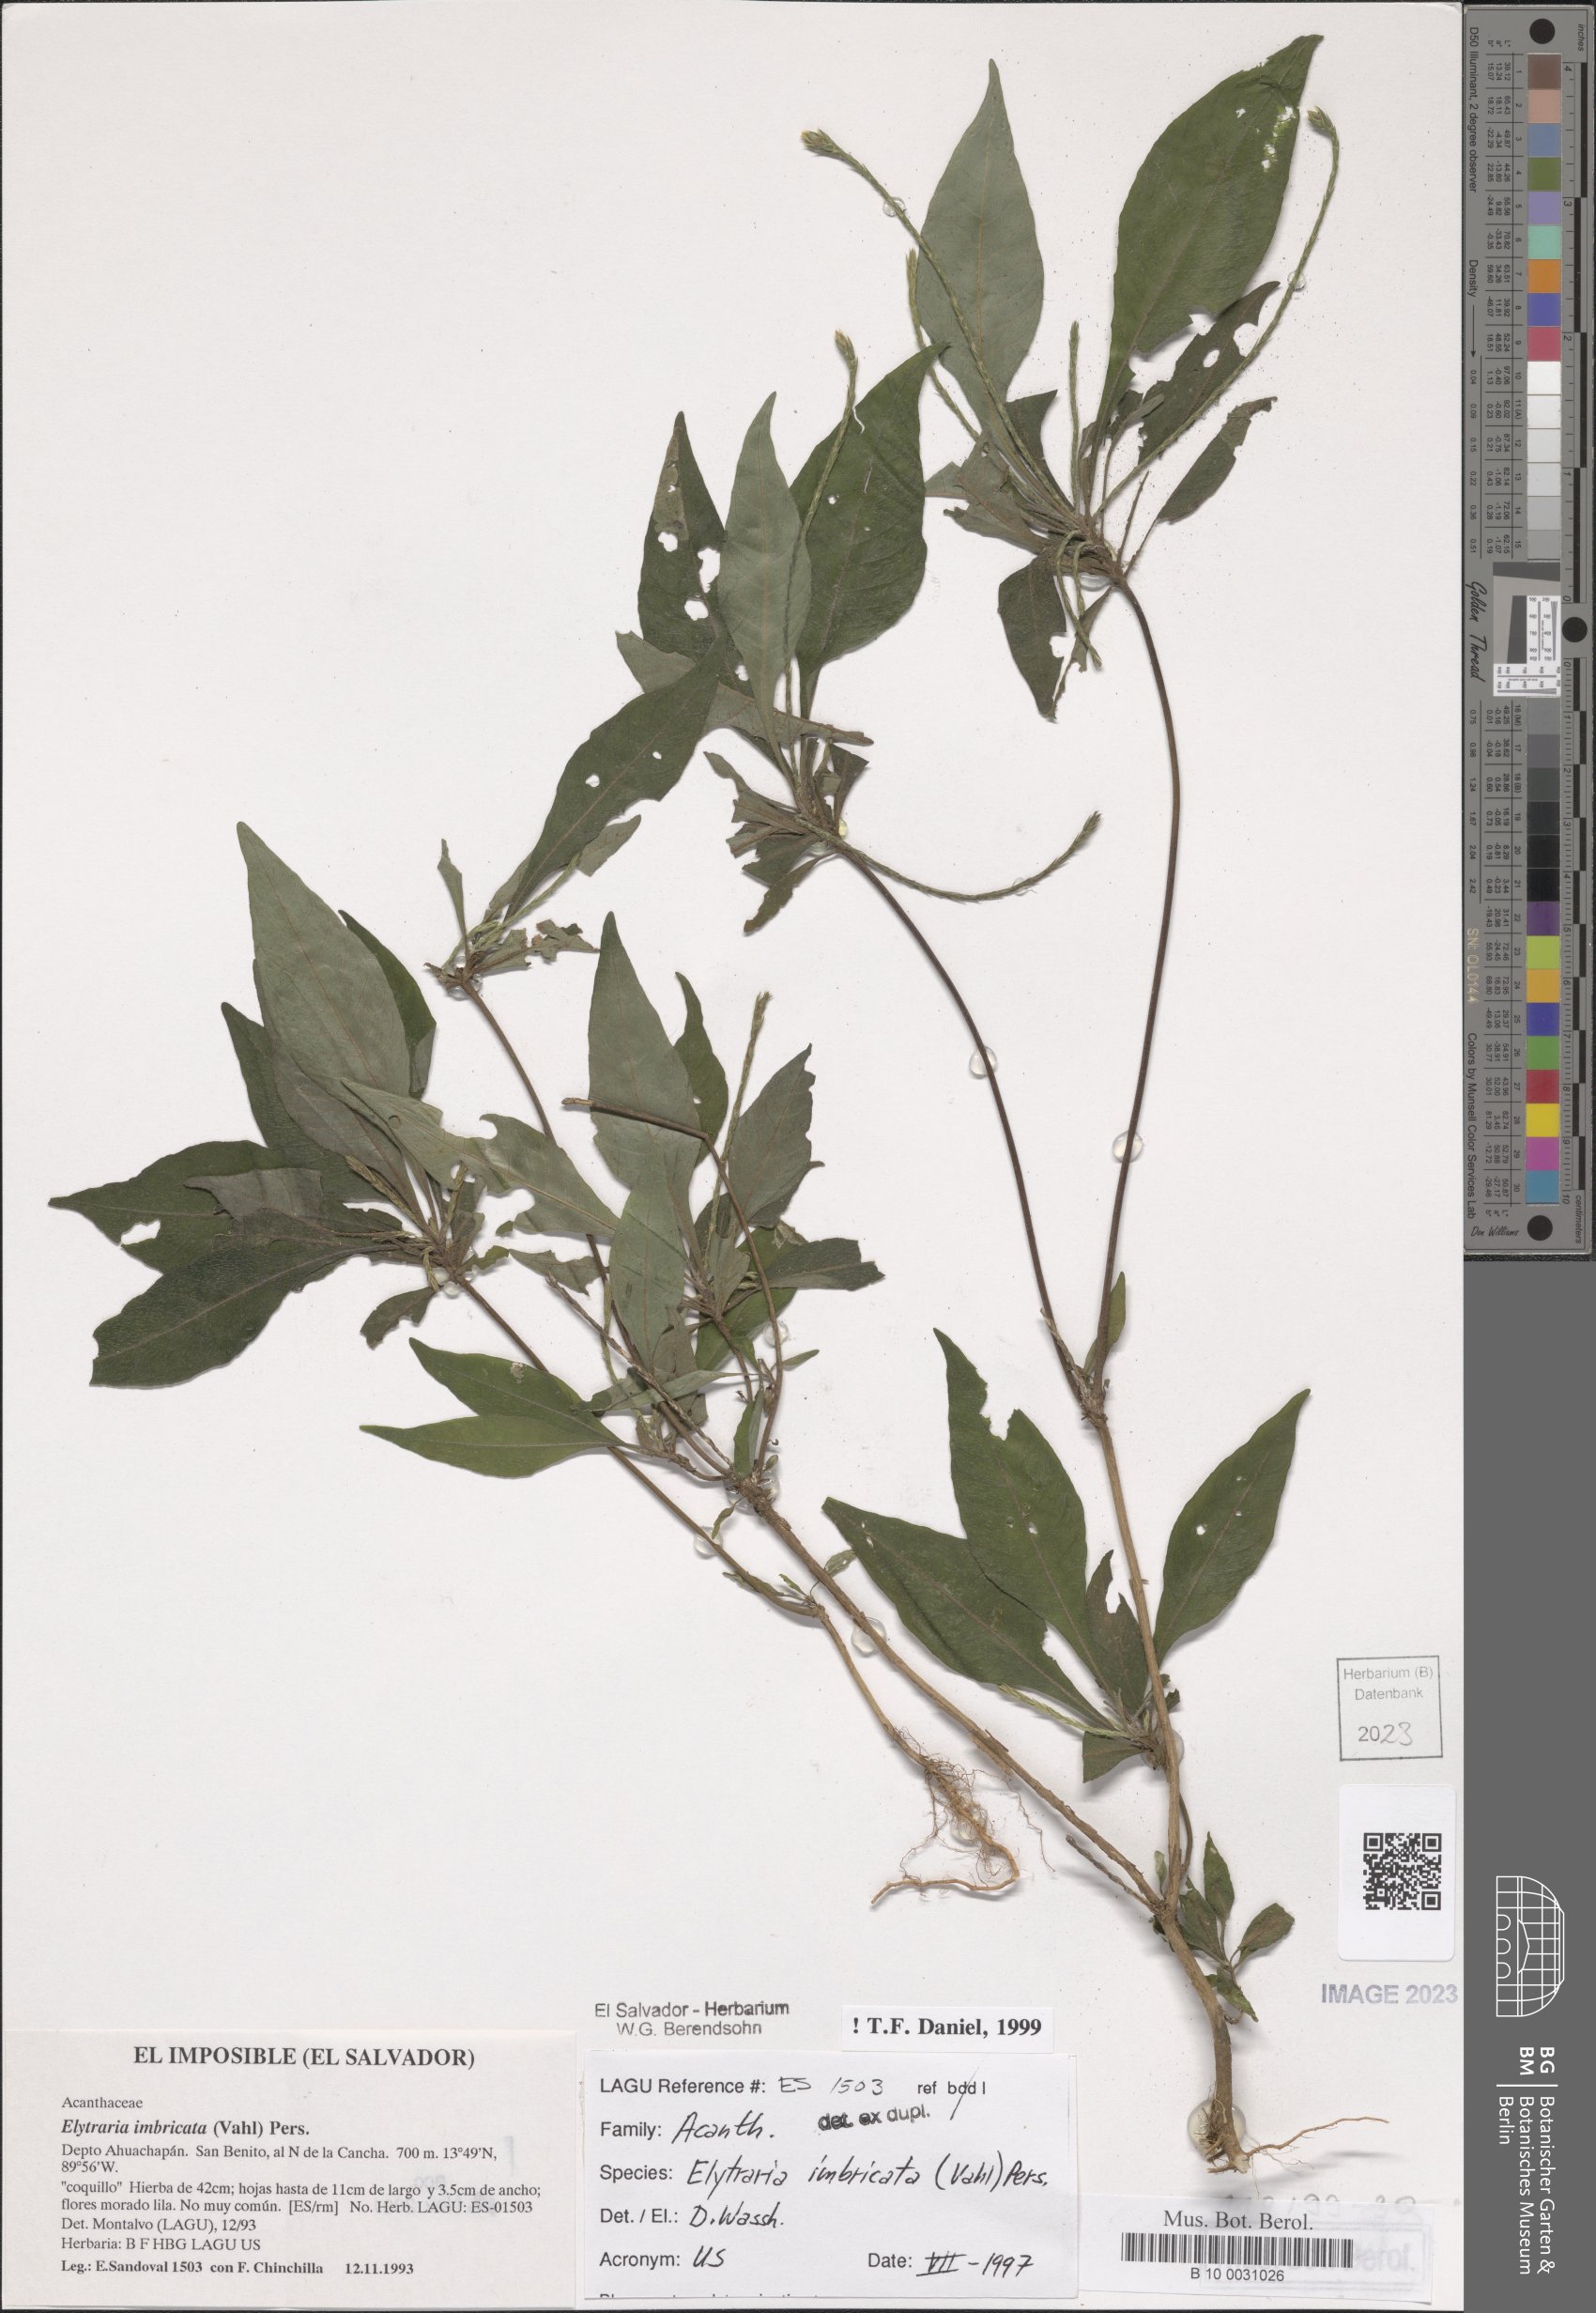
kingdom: Plantae
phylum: Tracheophyta
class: Magnoliopsida
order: Lamiales
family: Acanthaceae
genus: Elytraria
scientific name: Elytraria imbricata
